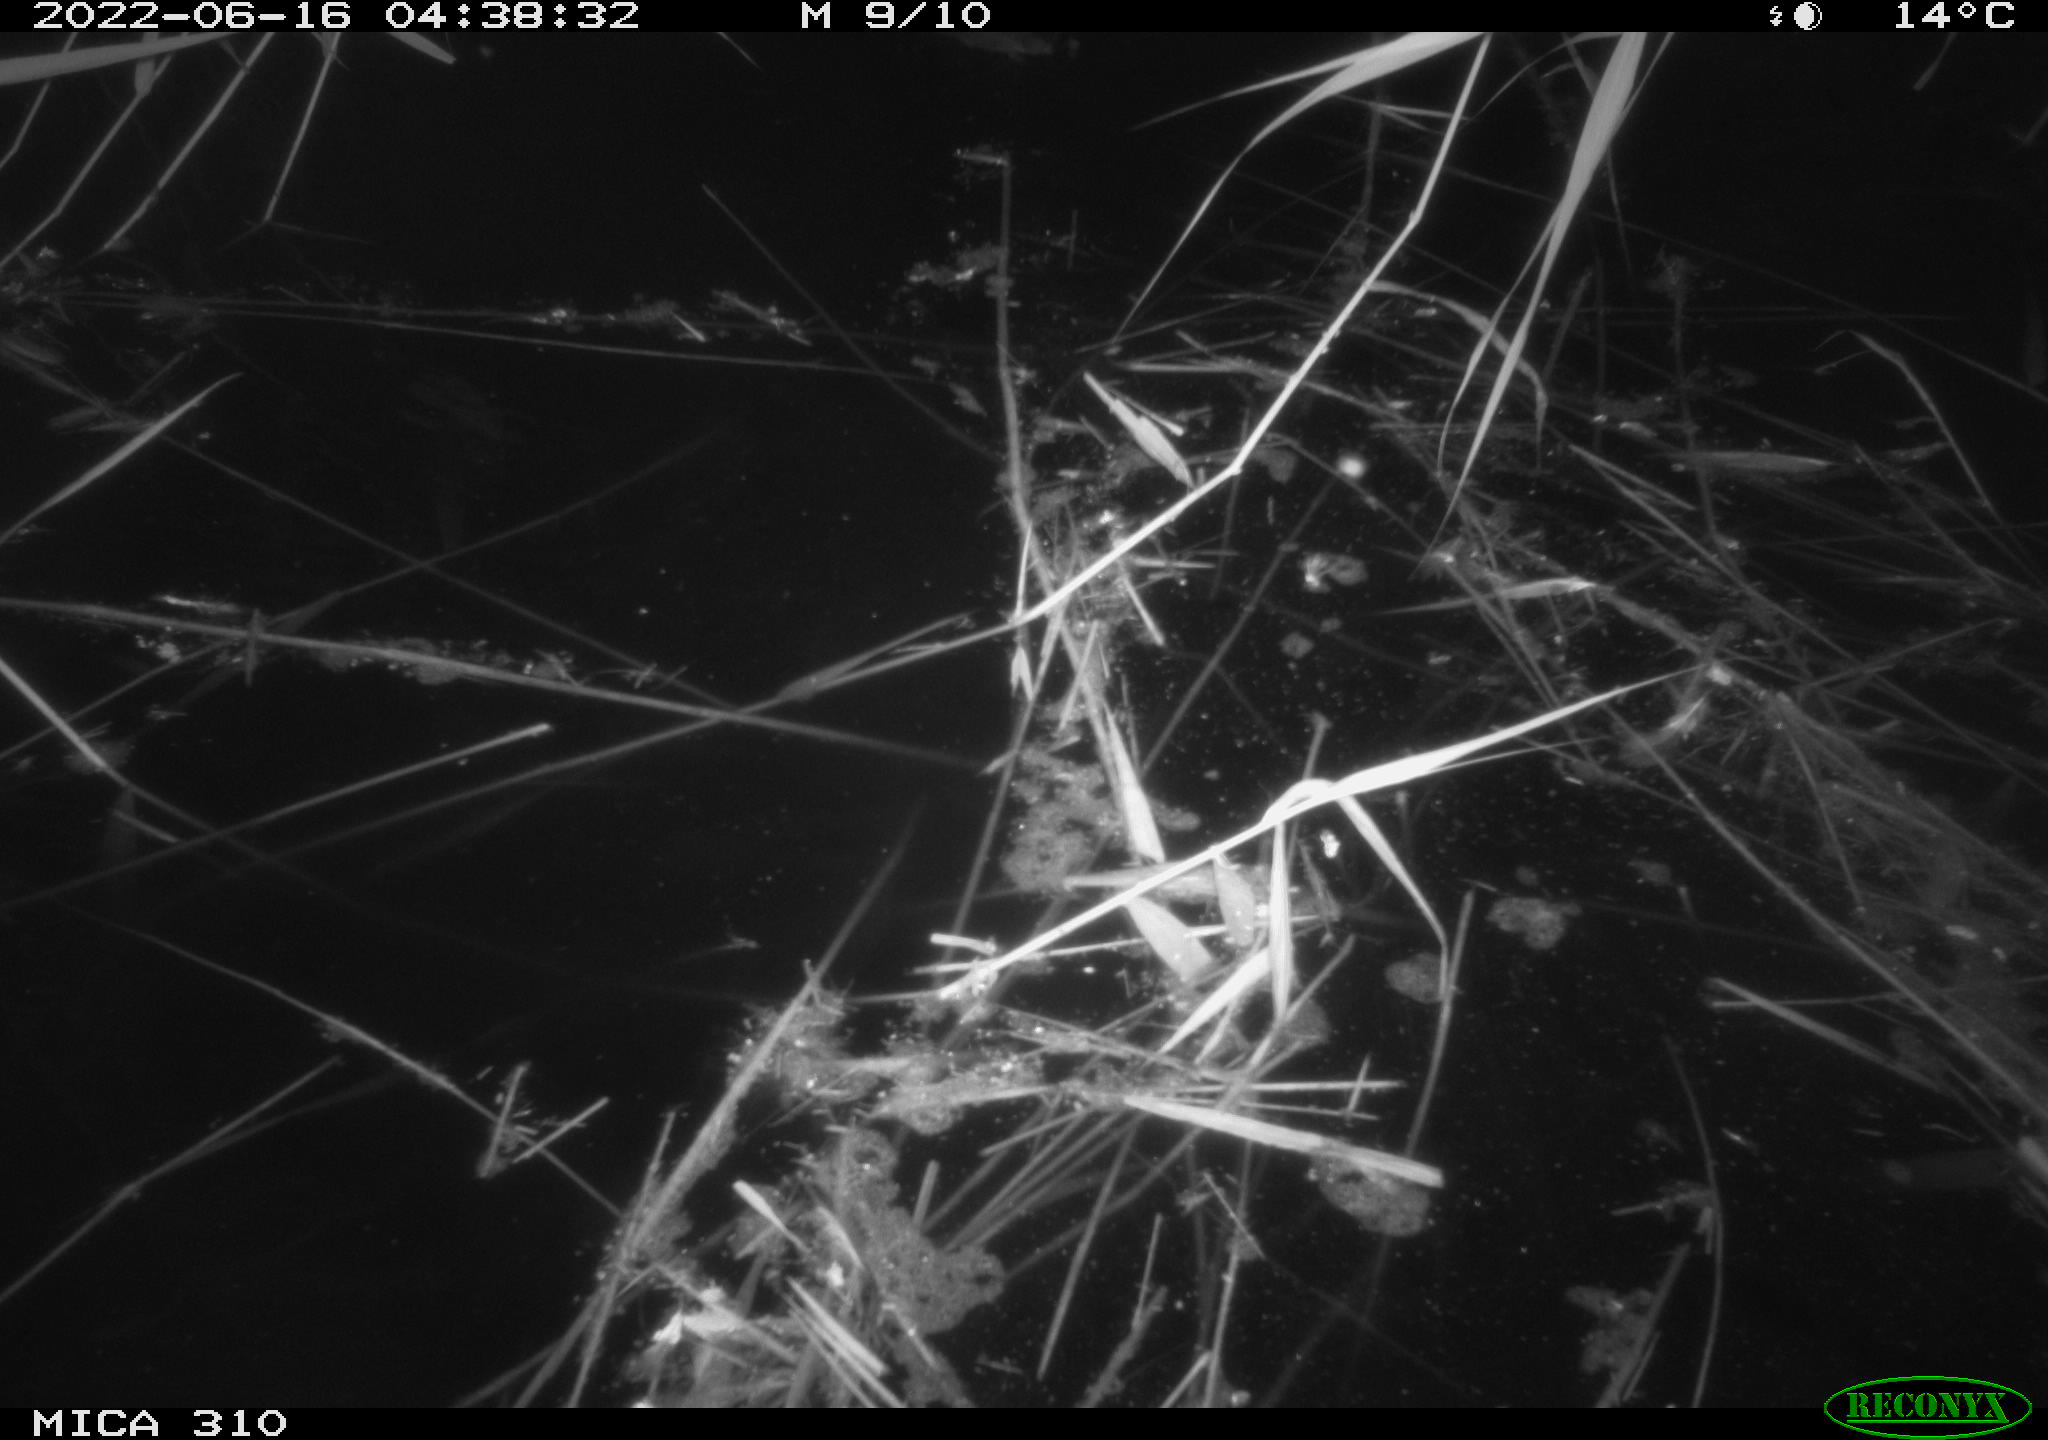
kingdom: Animalia
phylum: Chordata
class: Aves
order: Gruiformes
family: Rallidae
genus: Gallinula
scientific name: Gallinula chloropus
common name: Common moorhen
